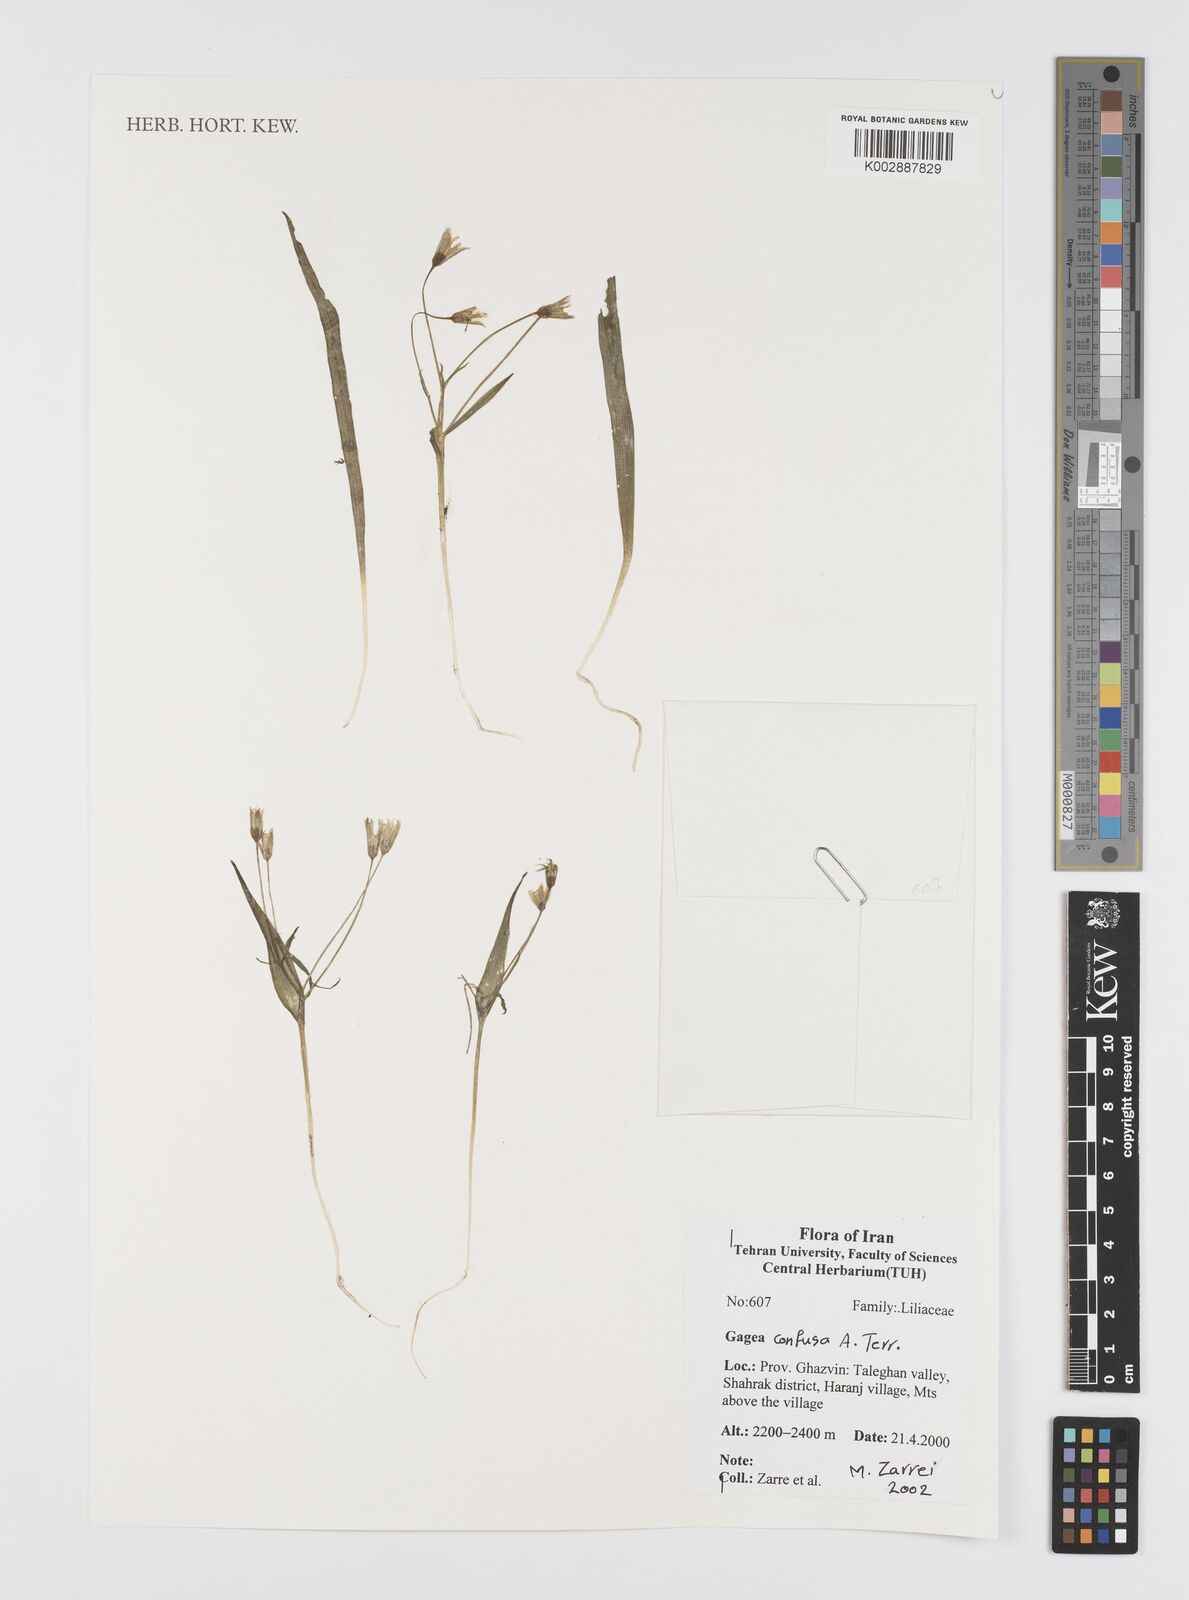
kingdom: Plantae
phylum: Tracheophyta
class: Liliopsida
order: Liliales
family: Liliaceae
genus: Gagea
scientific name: Gagea confusa
